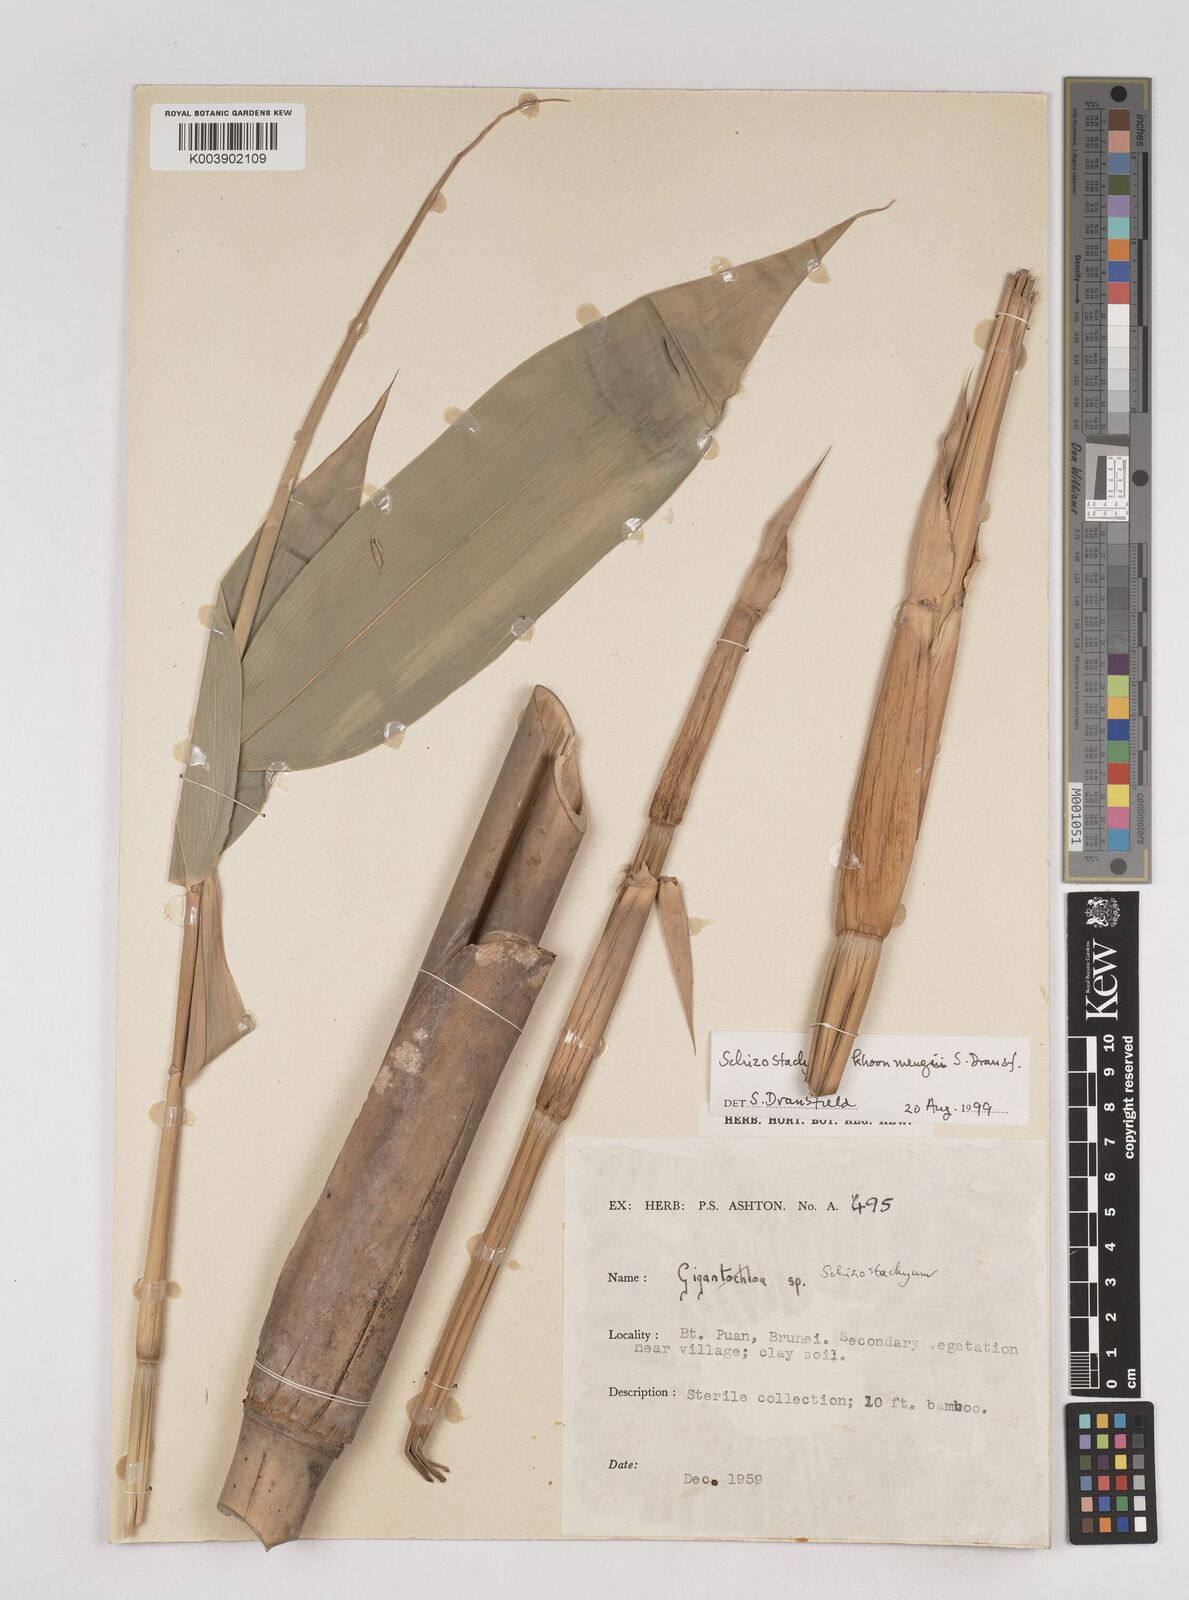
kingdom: Plantae
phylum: Tracheophyta
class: Liliopsida
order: Poales
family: Poaceae
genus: Schizostachyum
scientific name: Schizostachyum khoonmengii
